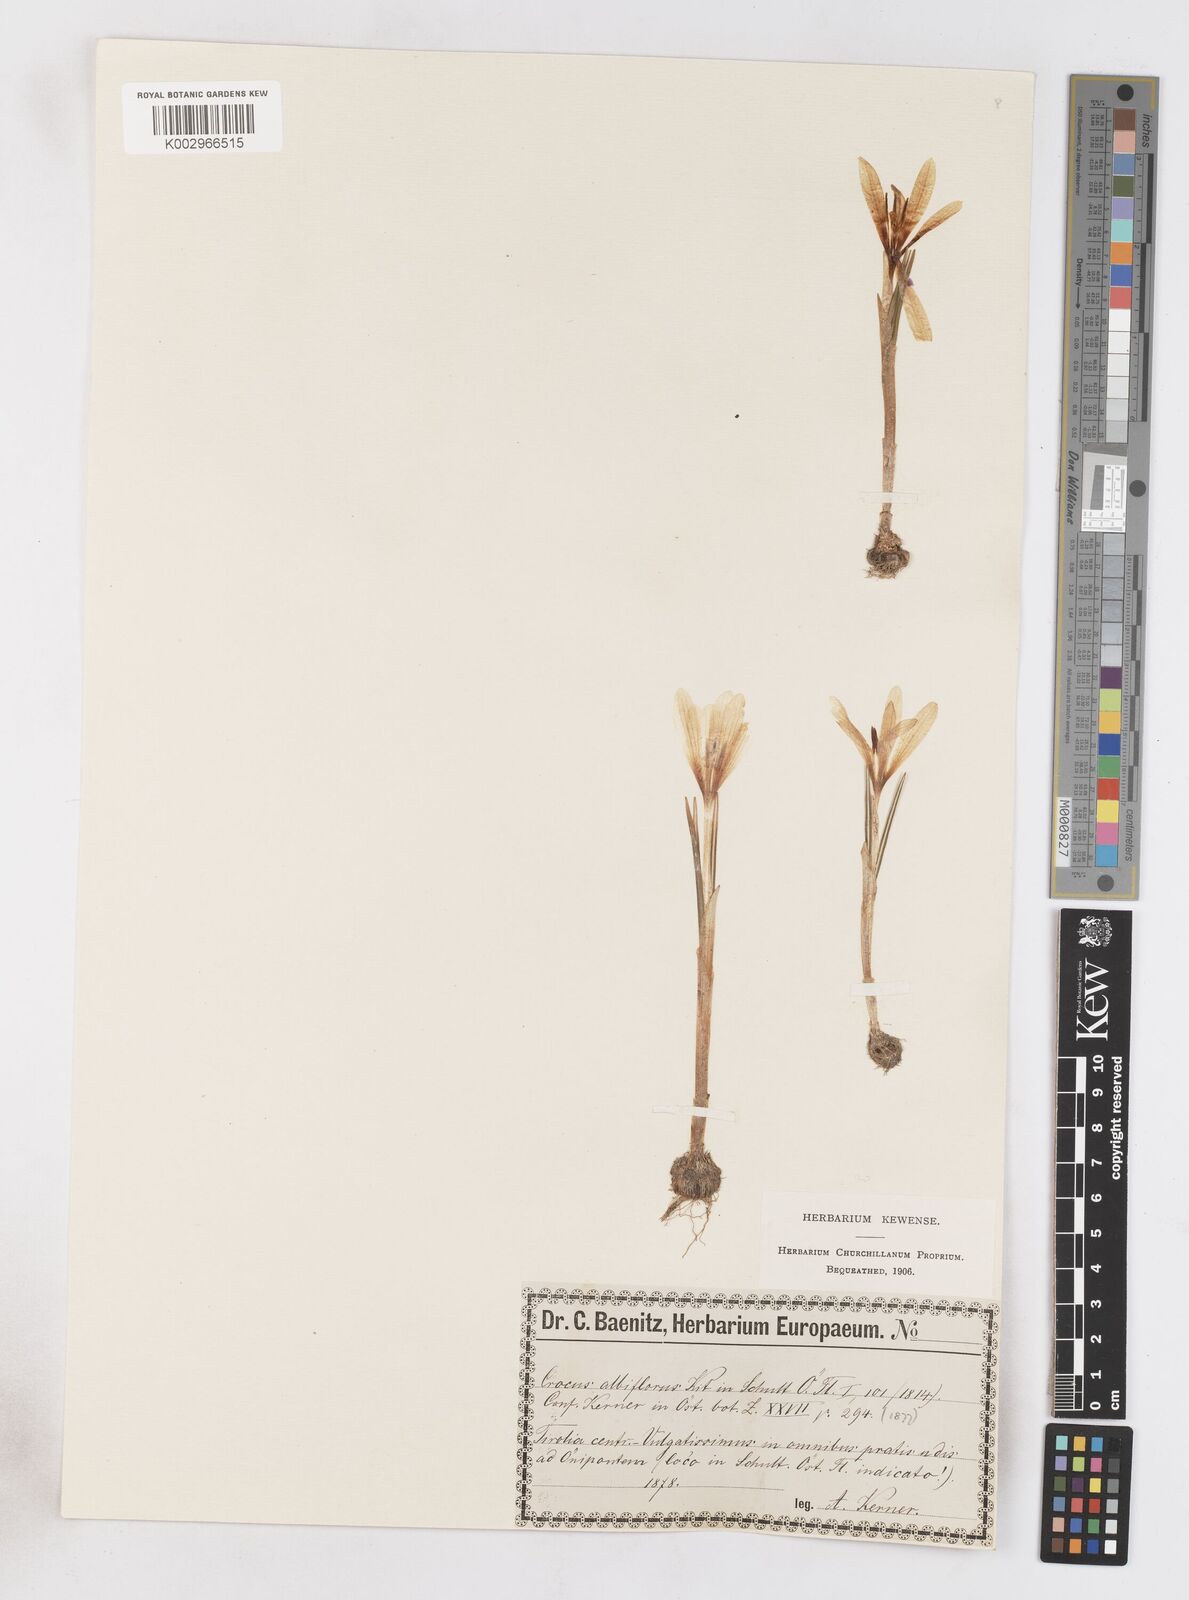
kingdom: Plantae
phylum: Tracheophyta
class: Liliopsida
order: Asparagales
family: Iridaceae
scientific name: Iridaceae
